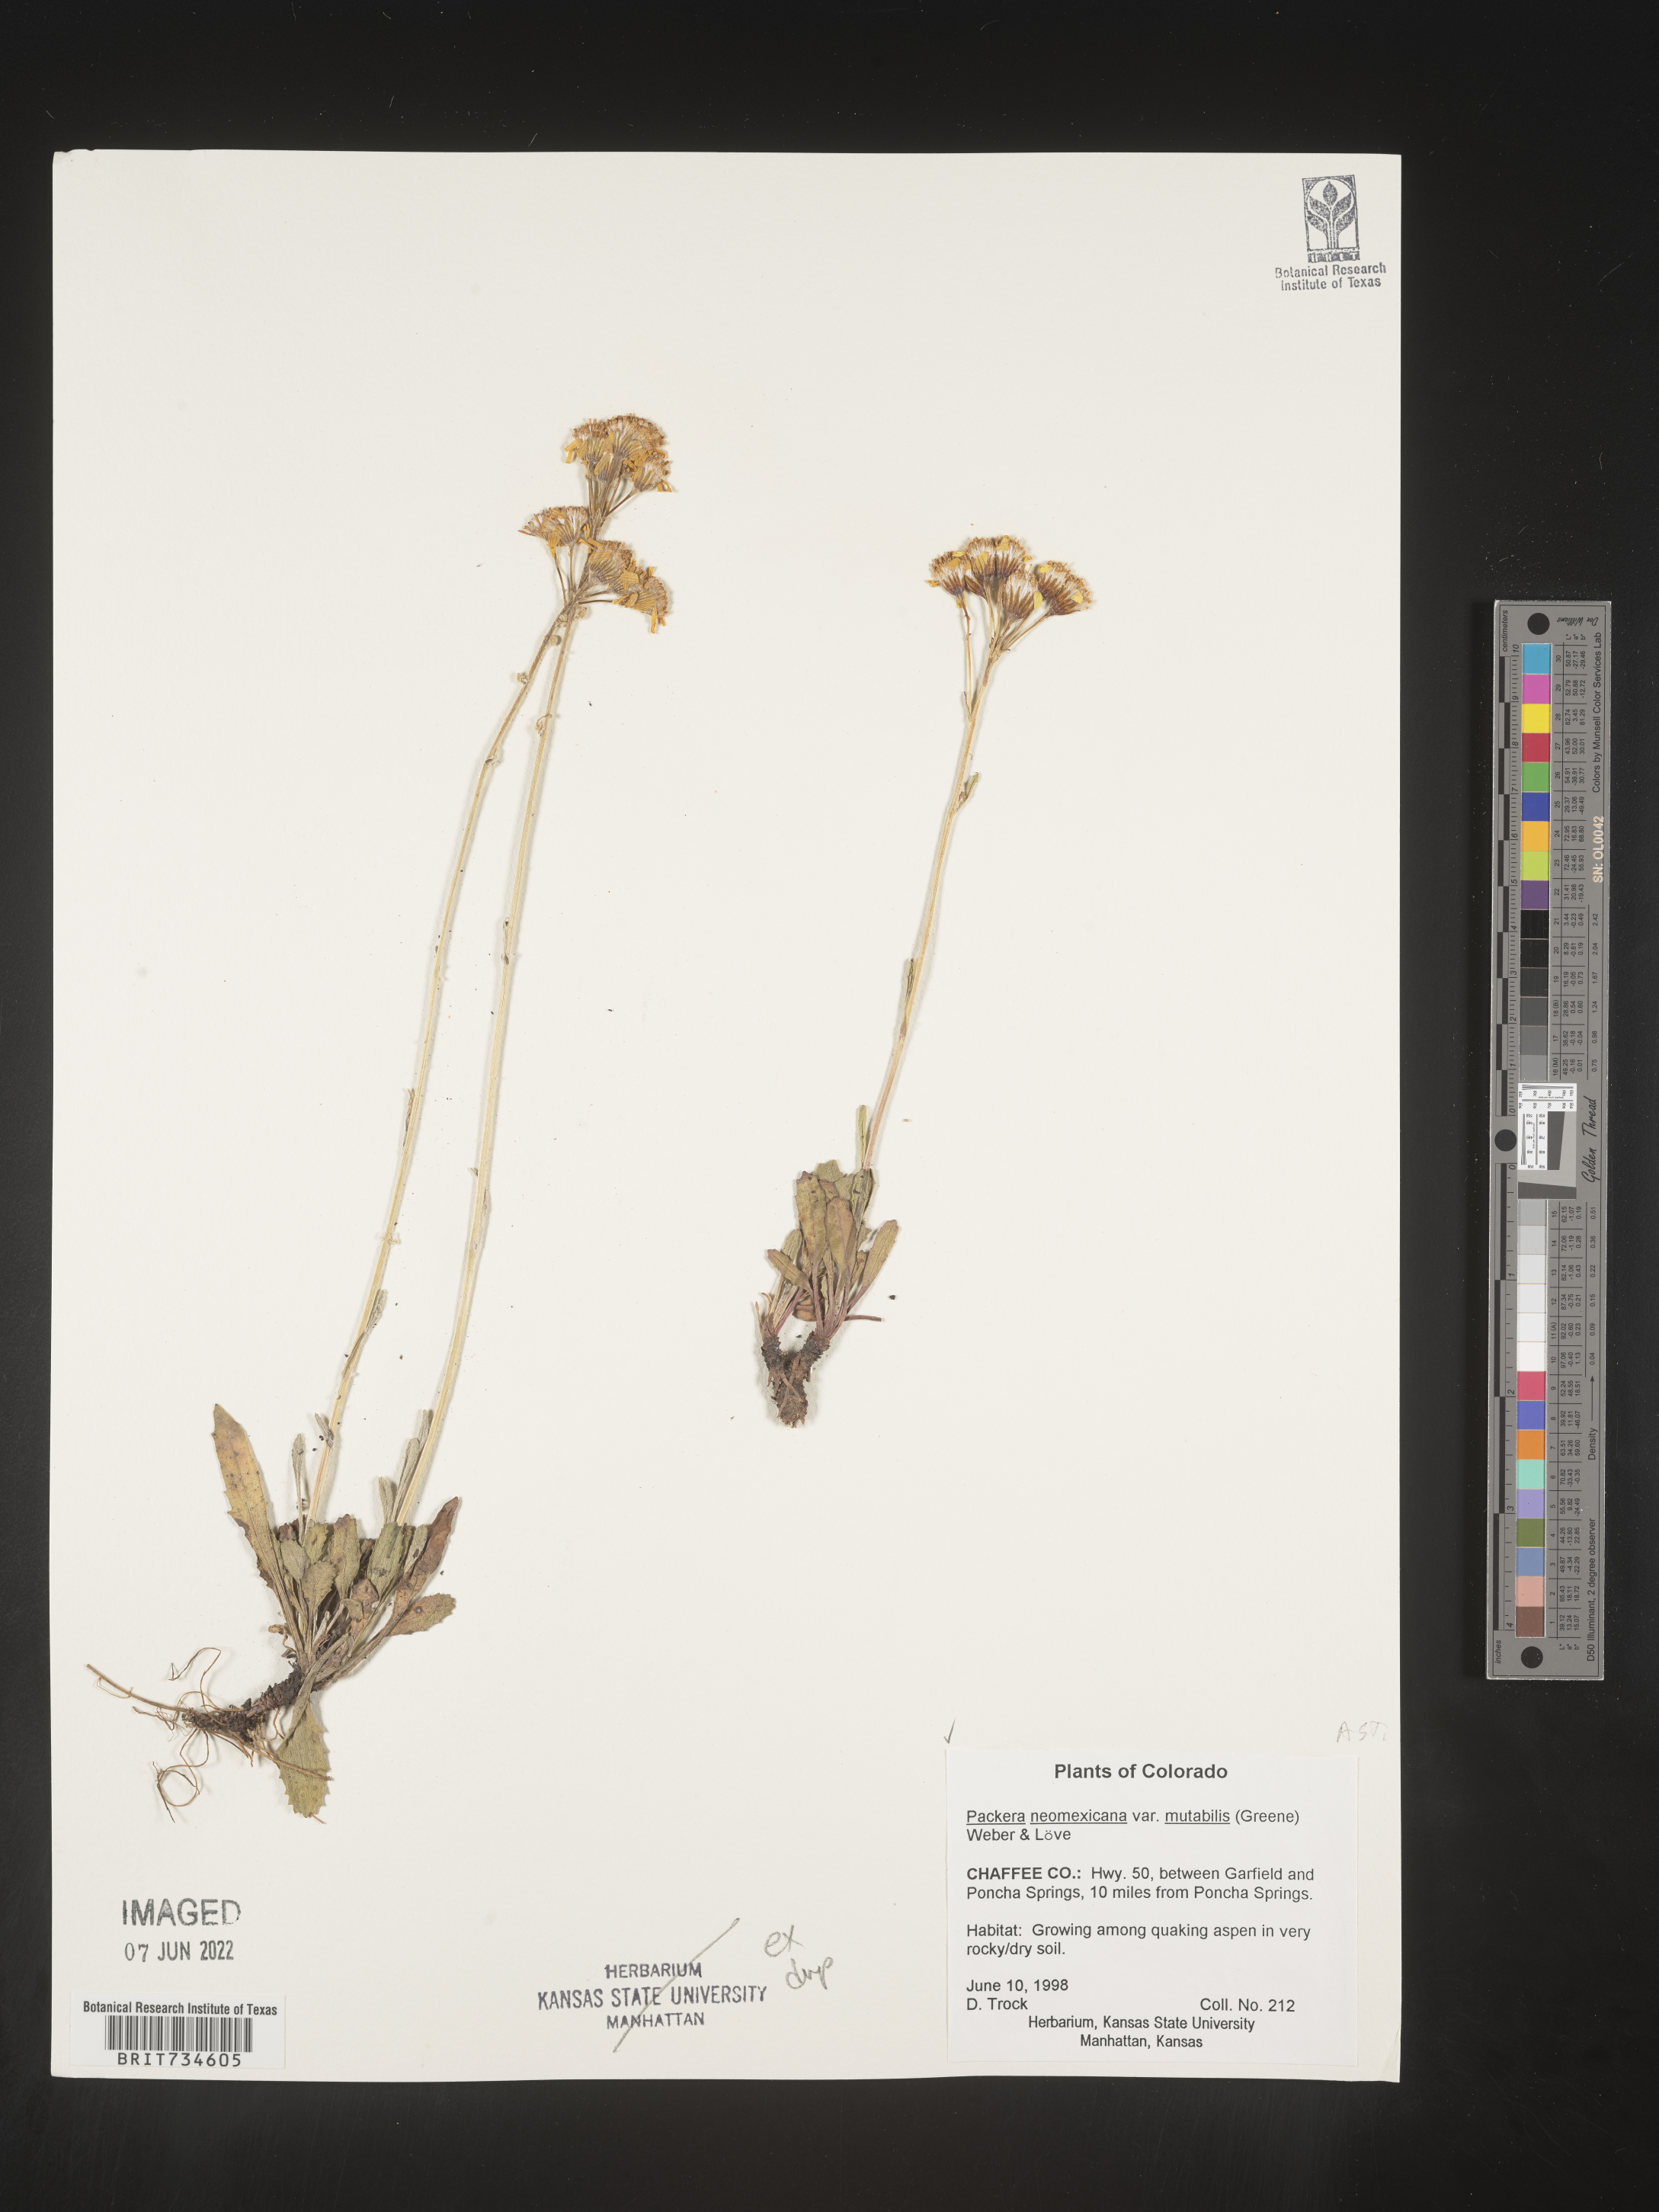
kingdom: Plantae
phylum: Tracheophyta
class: Magnoliopsida
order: Asterales
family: Asteraceae
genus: Packera
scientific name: Packera neomexicana
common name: New mexico butterweed
